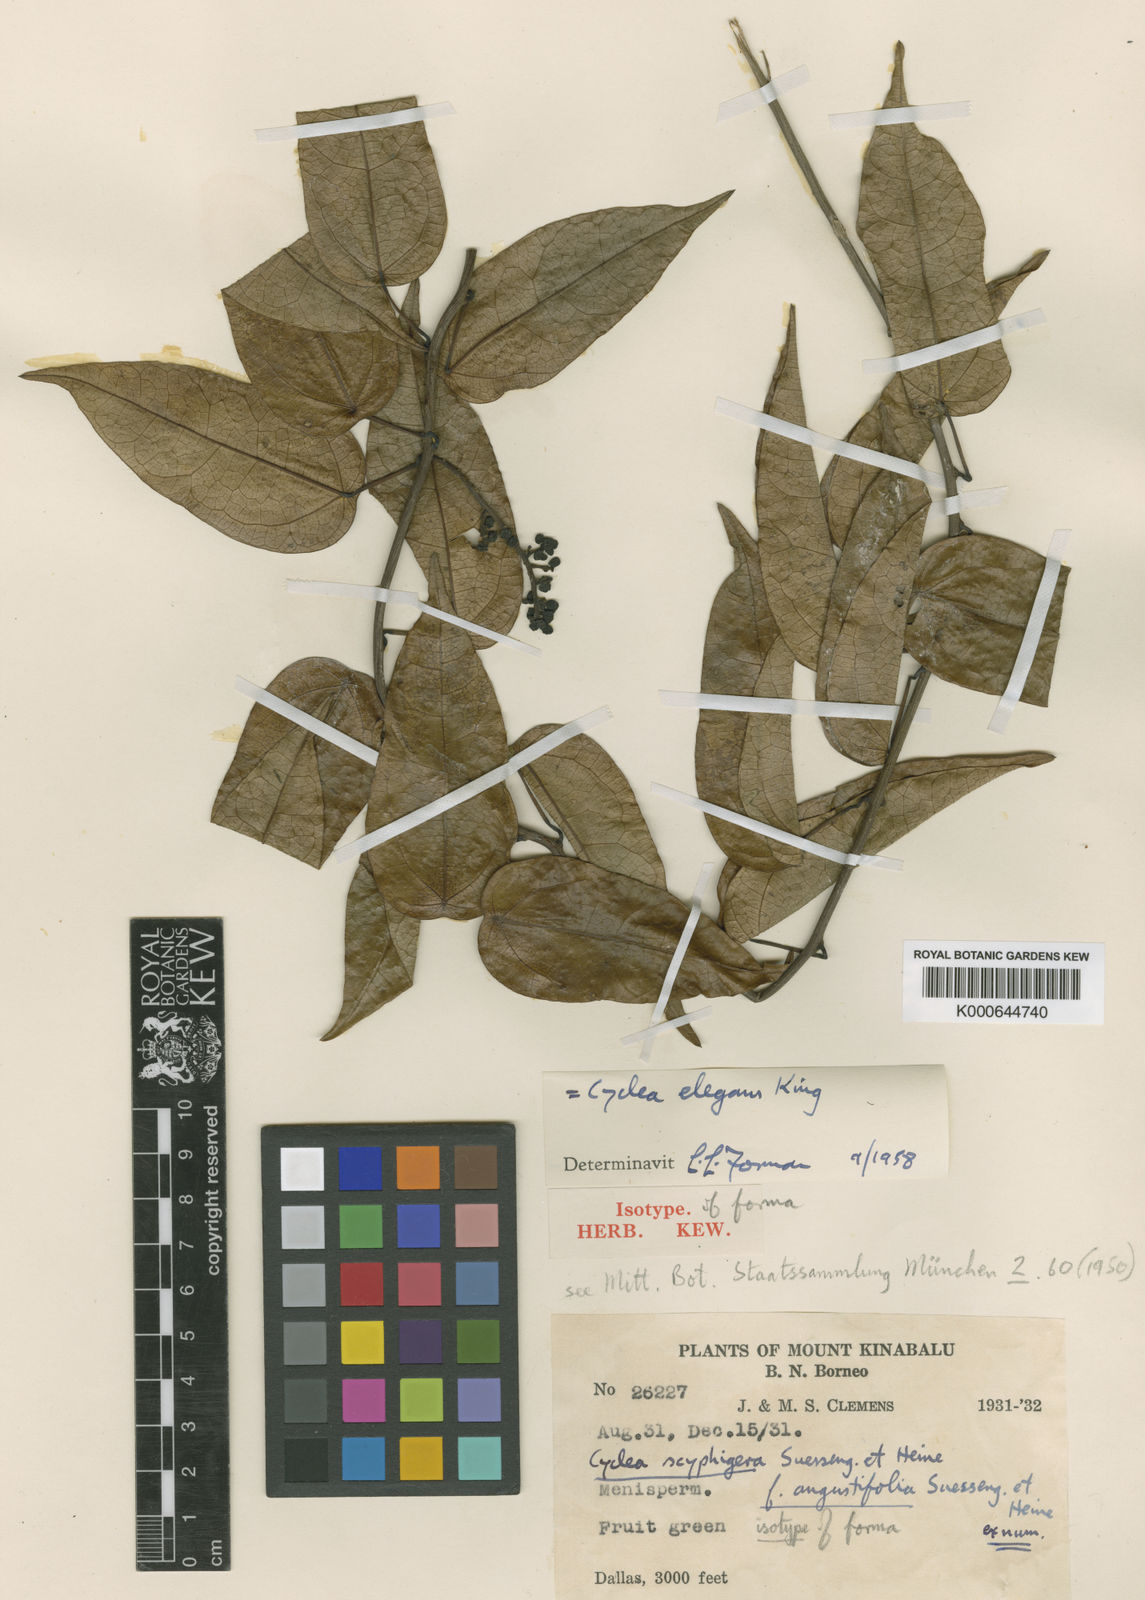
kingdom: Plantae
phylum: Tracheophyta
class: Magnoliopsida
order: Ranunculales
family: Menispermaceae
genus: Cyclea
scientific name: Cyclea elegans
